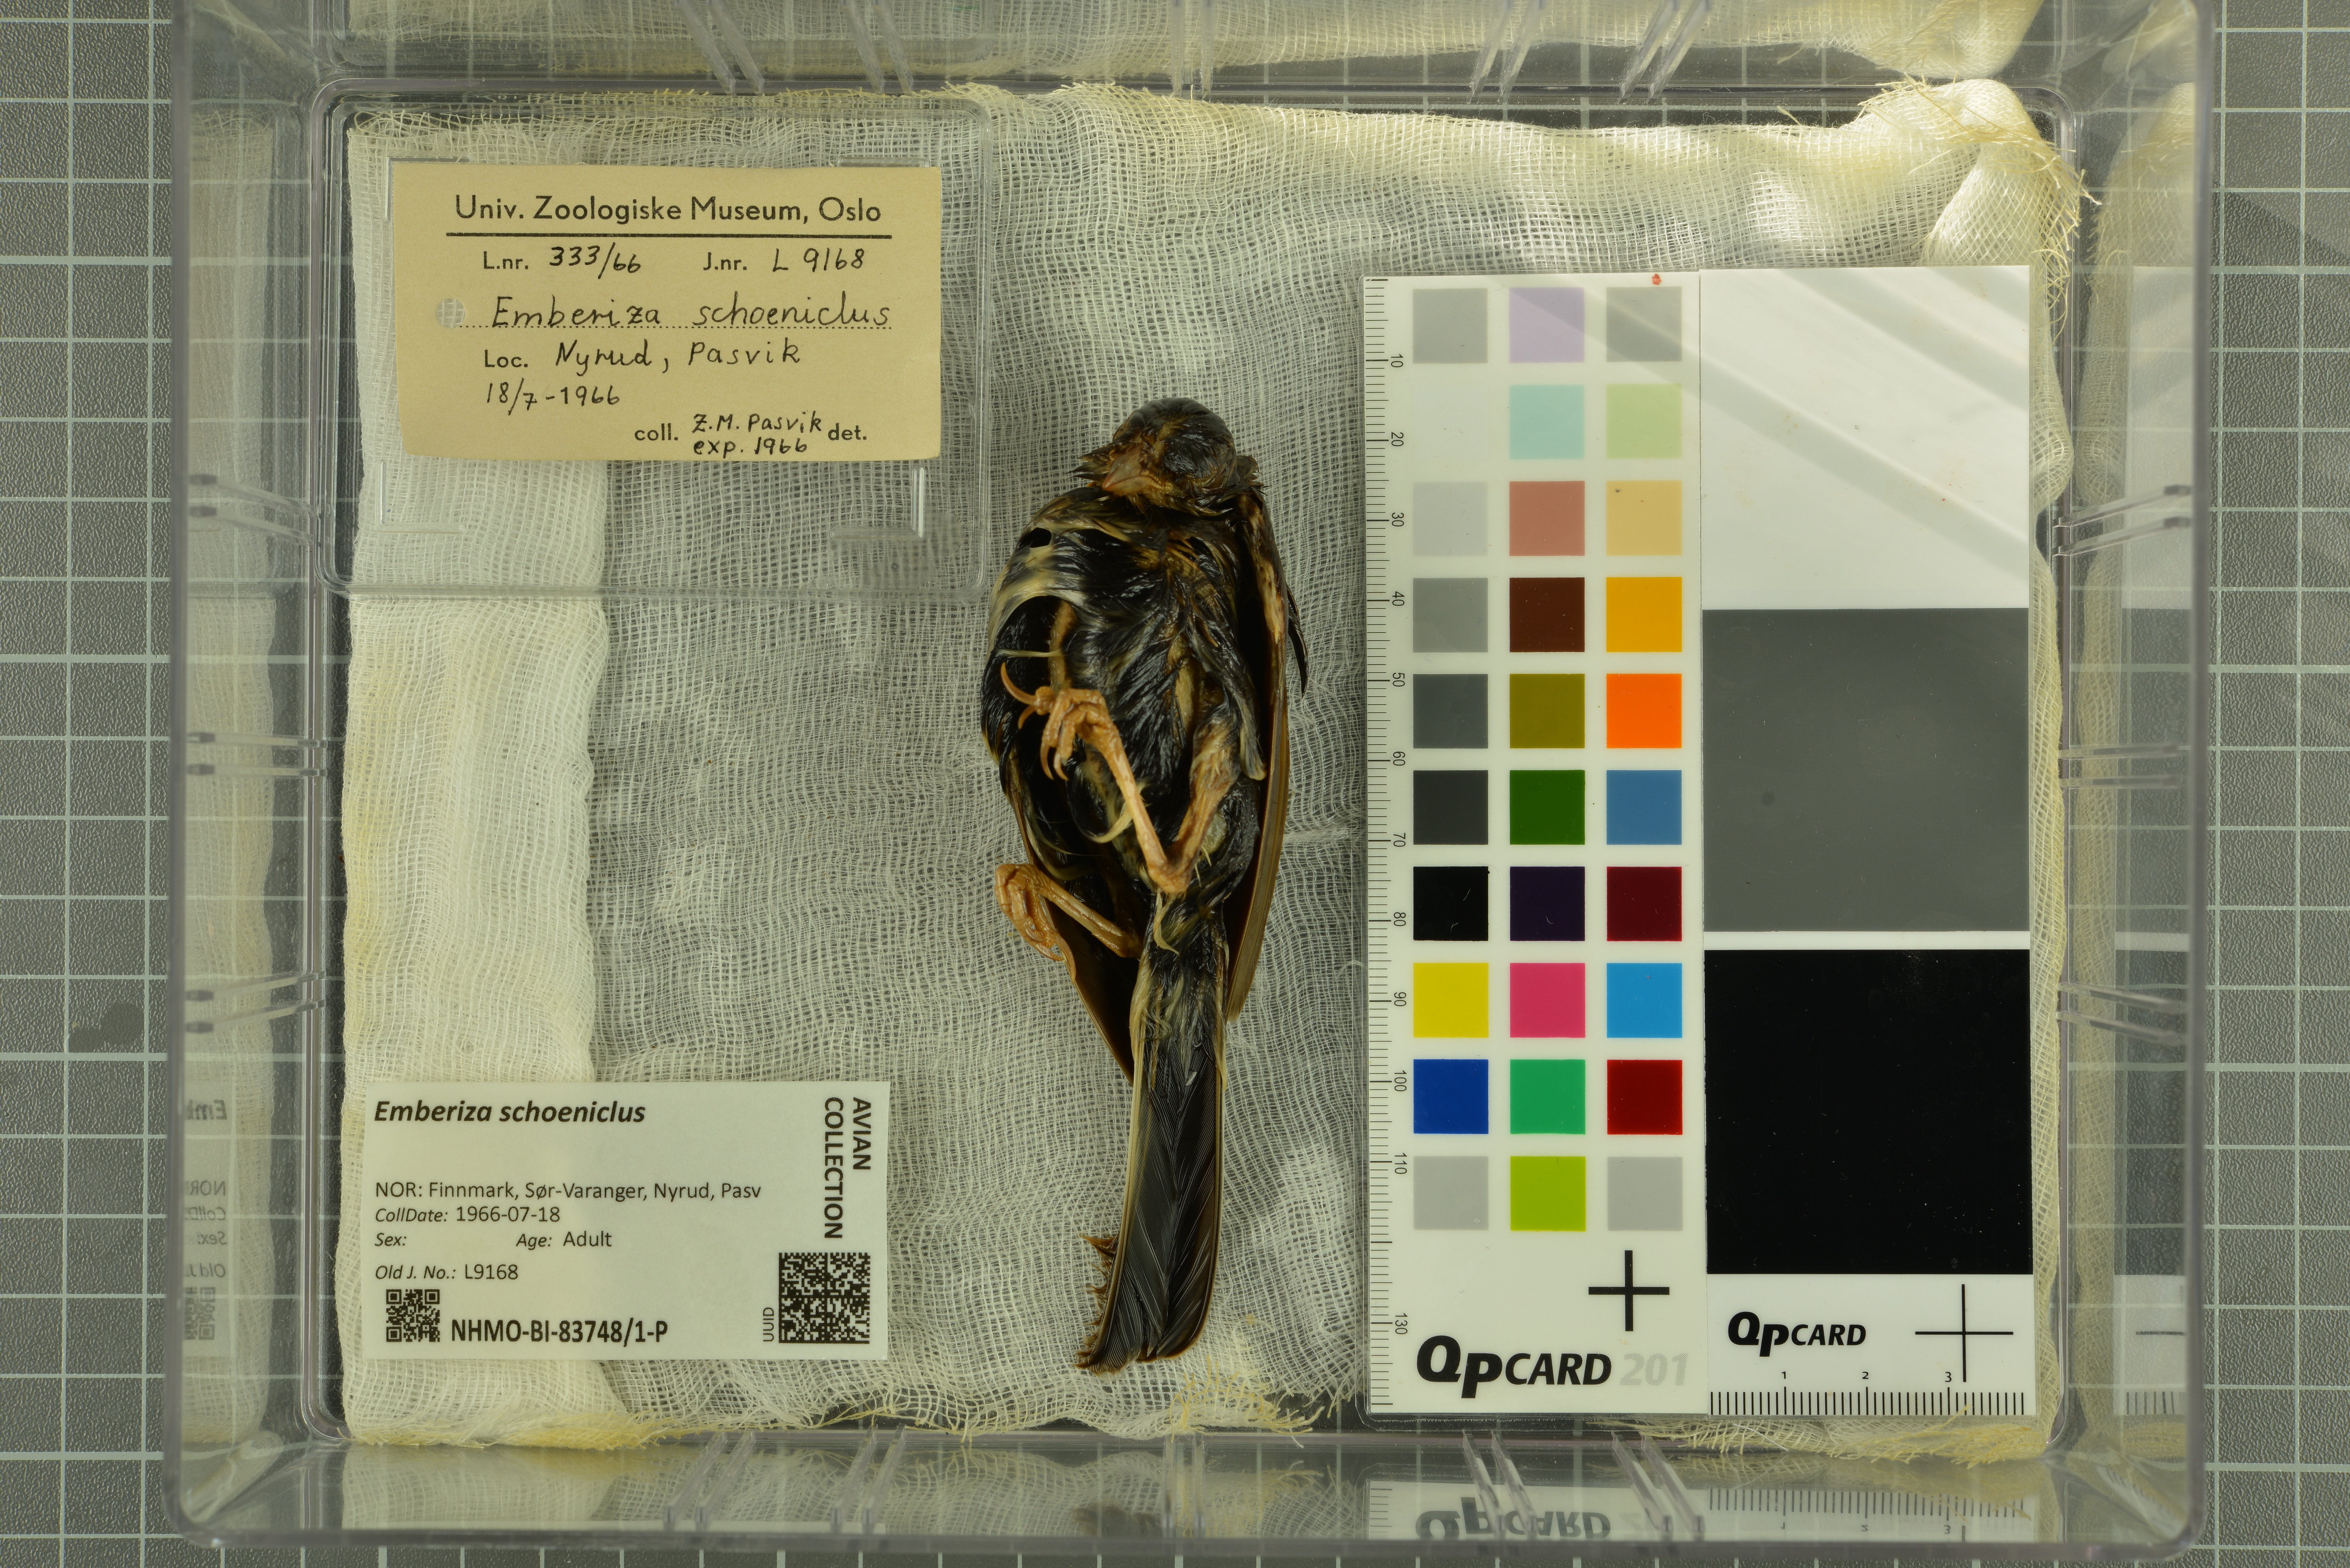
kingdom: Animalia
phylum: Chordata
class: Aves
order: Passeriformes
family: Emberizidae
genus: Emberiza
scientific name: Emberiza schoeniclus
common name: Reed bunting
